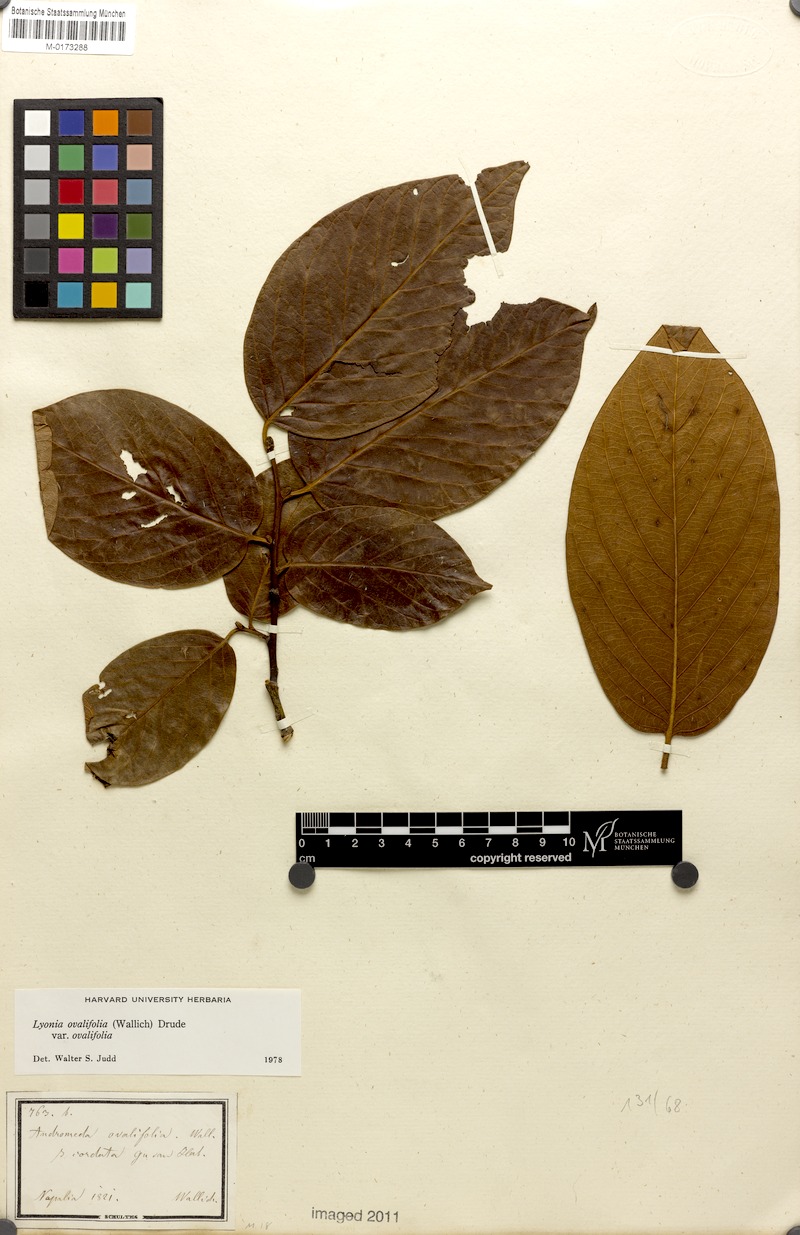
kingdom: Plantae
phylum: Tracheophyta
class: Magnoliopsida
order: Ericales
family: Ericaceae
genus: Lyonia
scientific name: Lyonia ovalifolia
